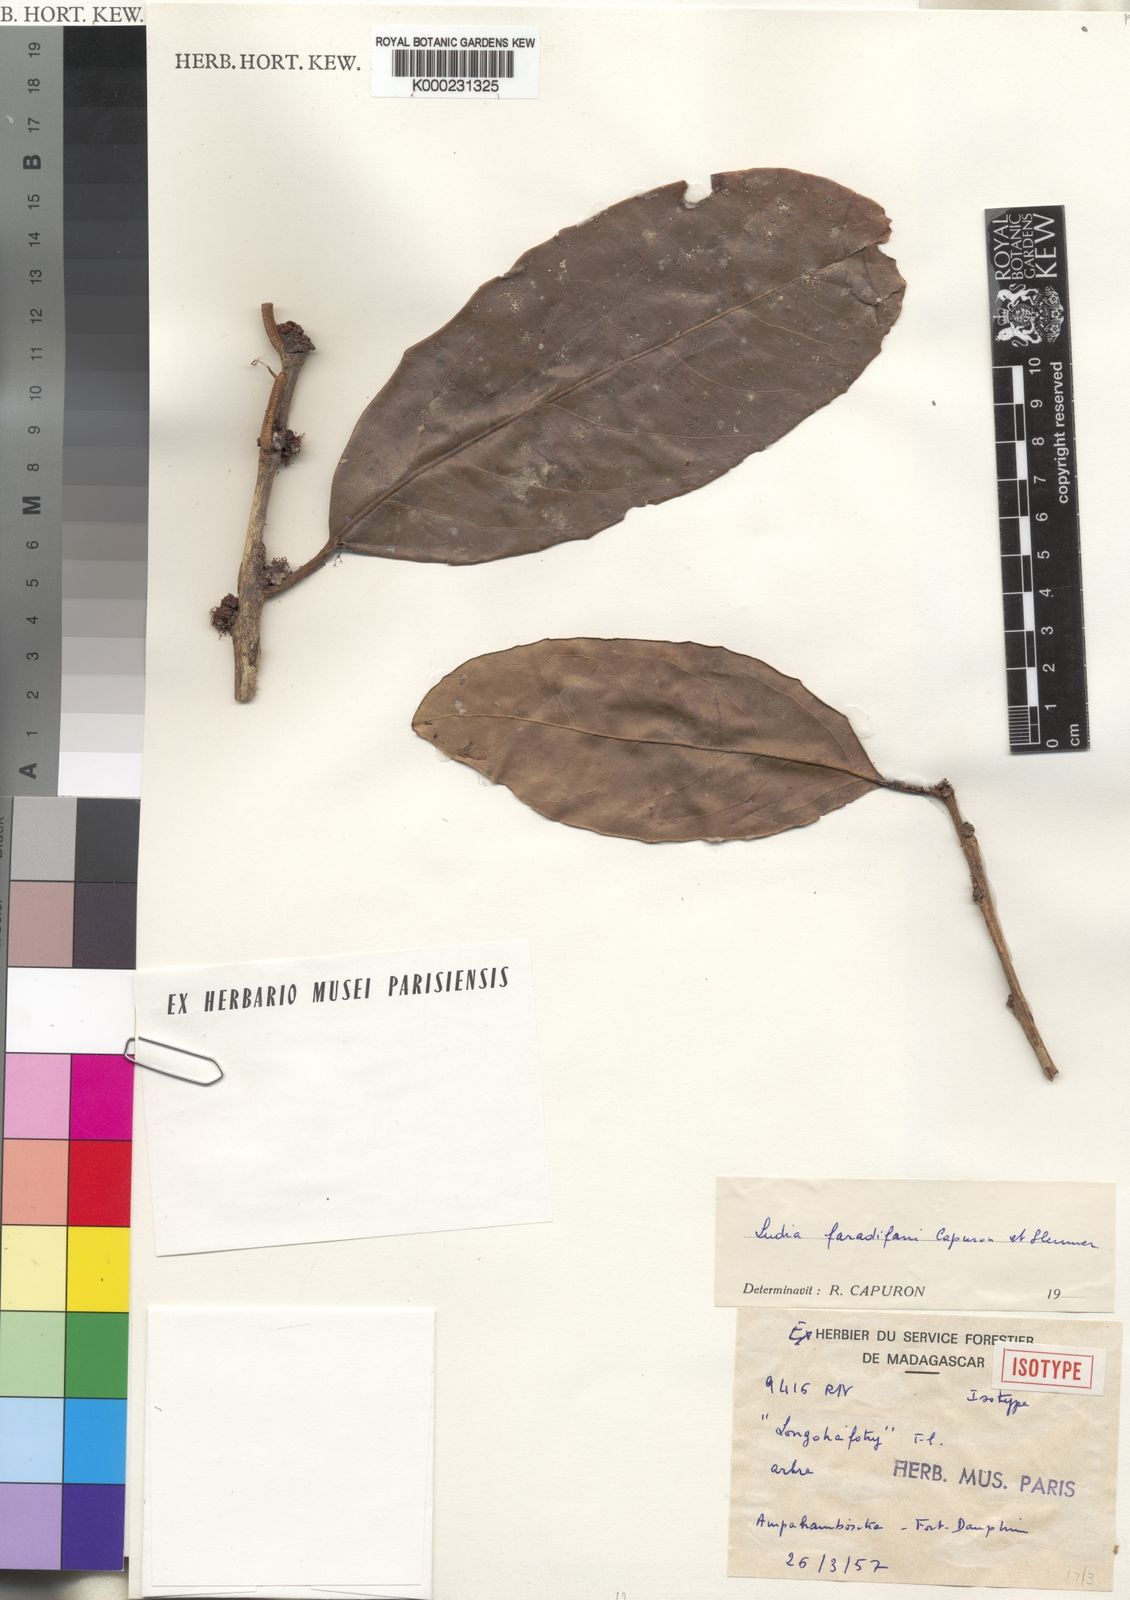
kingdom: Plantae
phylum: Tracheophyta
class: Magnoliopsida
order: Malpighiales
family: Salicaceae
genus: Ludia
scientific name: Ludia faradifani
